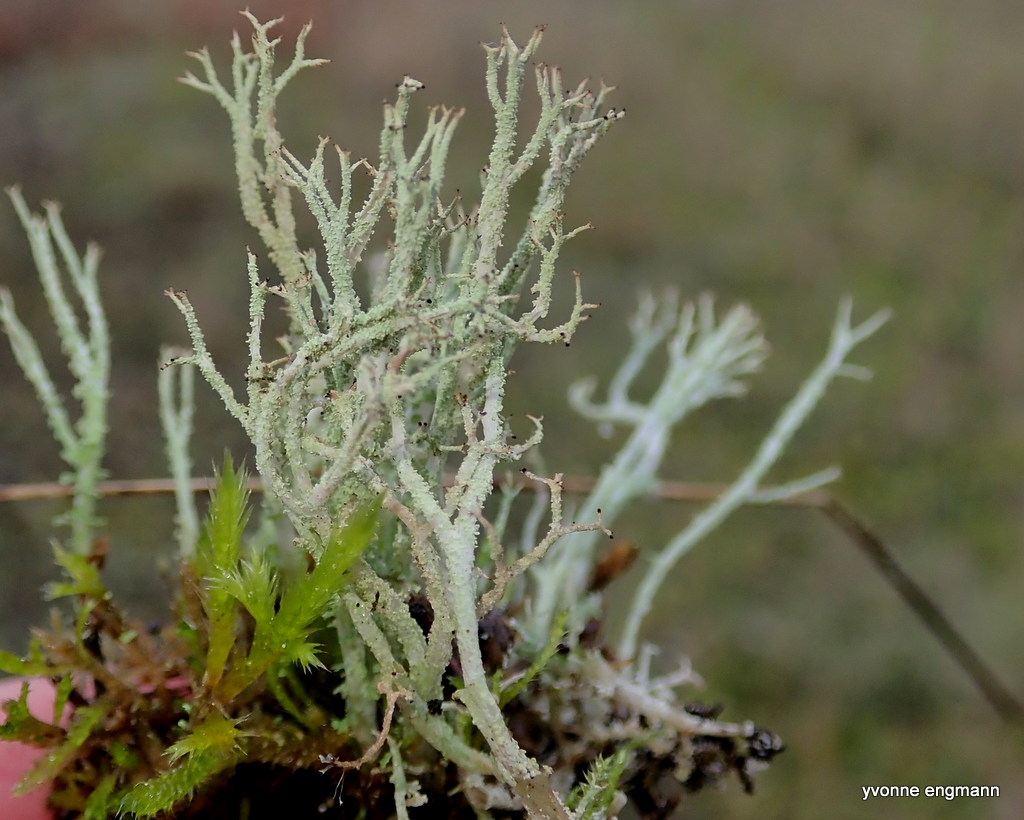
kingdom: Fungi
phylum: Ascomycota
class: Lecanoromycetes
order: Lecanorales
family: Cladoniaceae
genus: Cladonia
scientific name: Cladonia scabriuscula
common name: ru bægerlav
